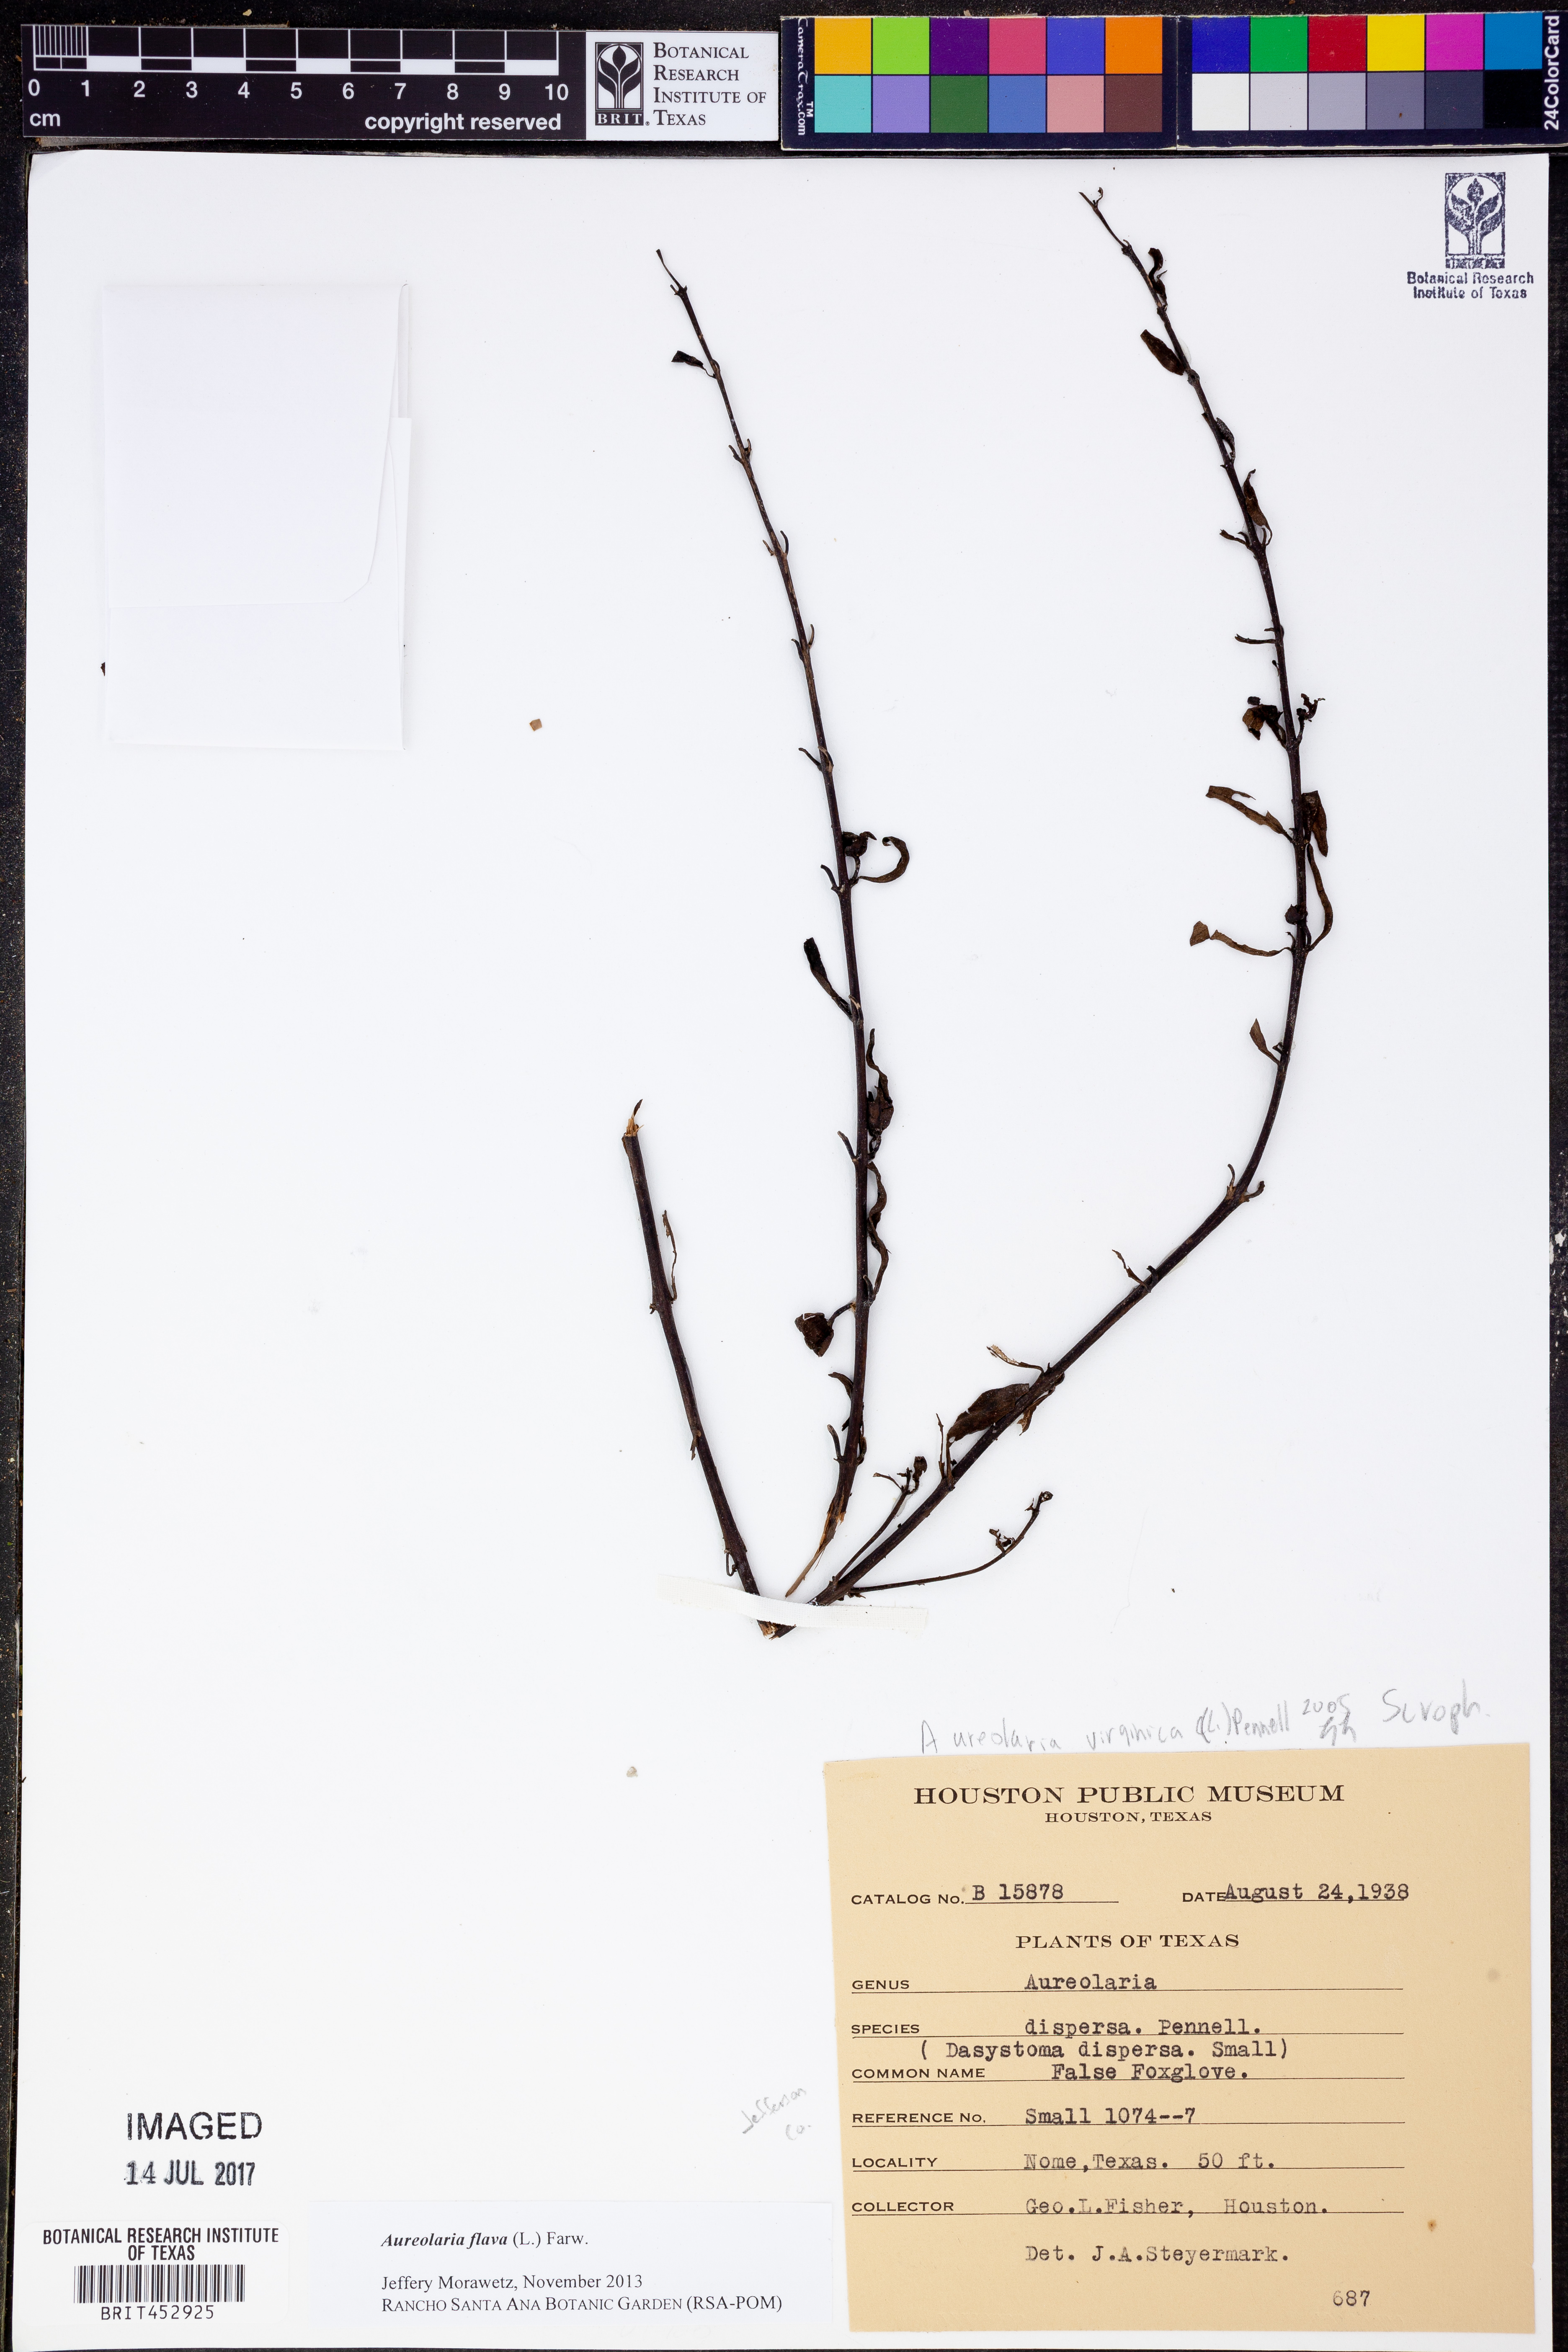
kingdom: Plantae
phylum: Tracheophyta
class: Magnoliopsida
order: Lamiales
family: Orobanchaceae
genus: Aureolaria
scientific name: Aureolaria flava
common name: Smooth false foxglove
